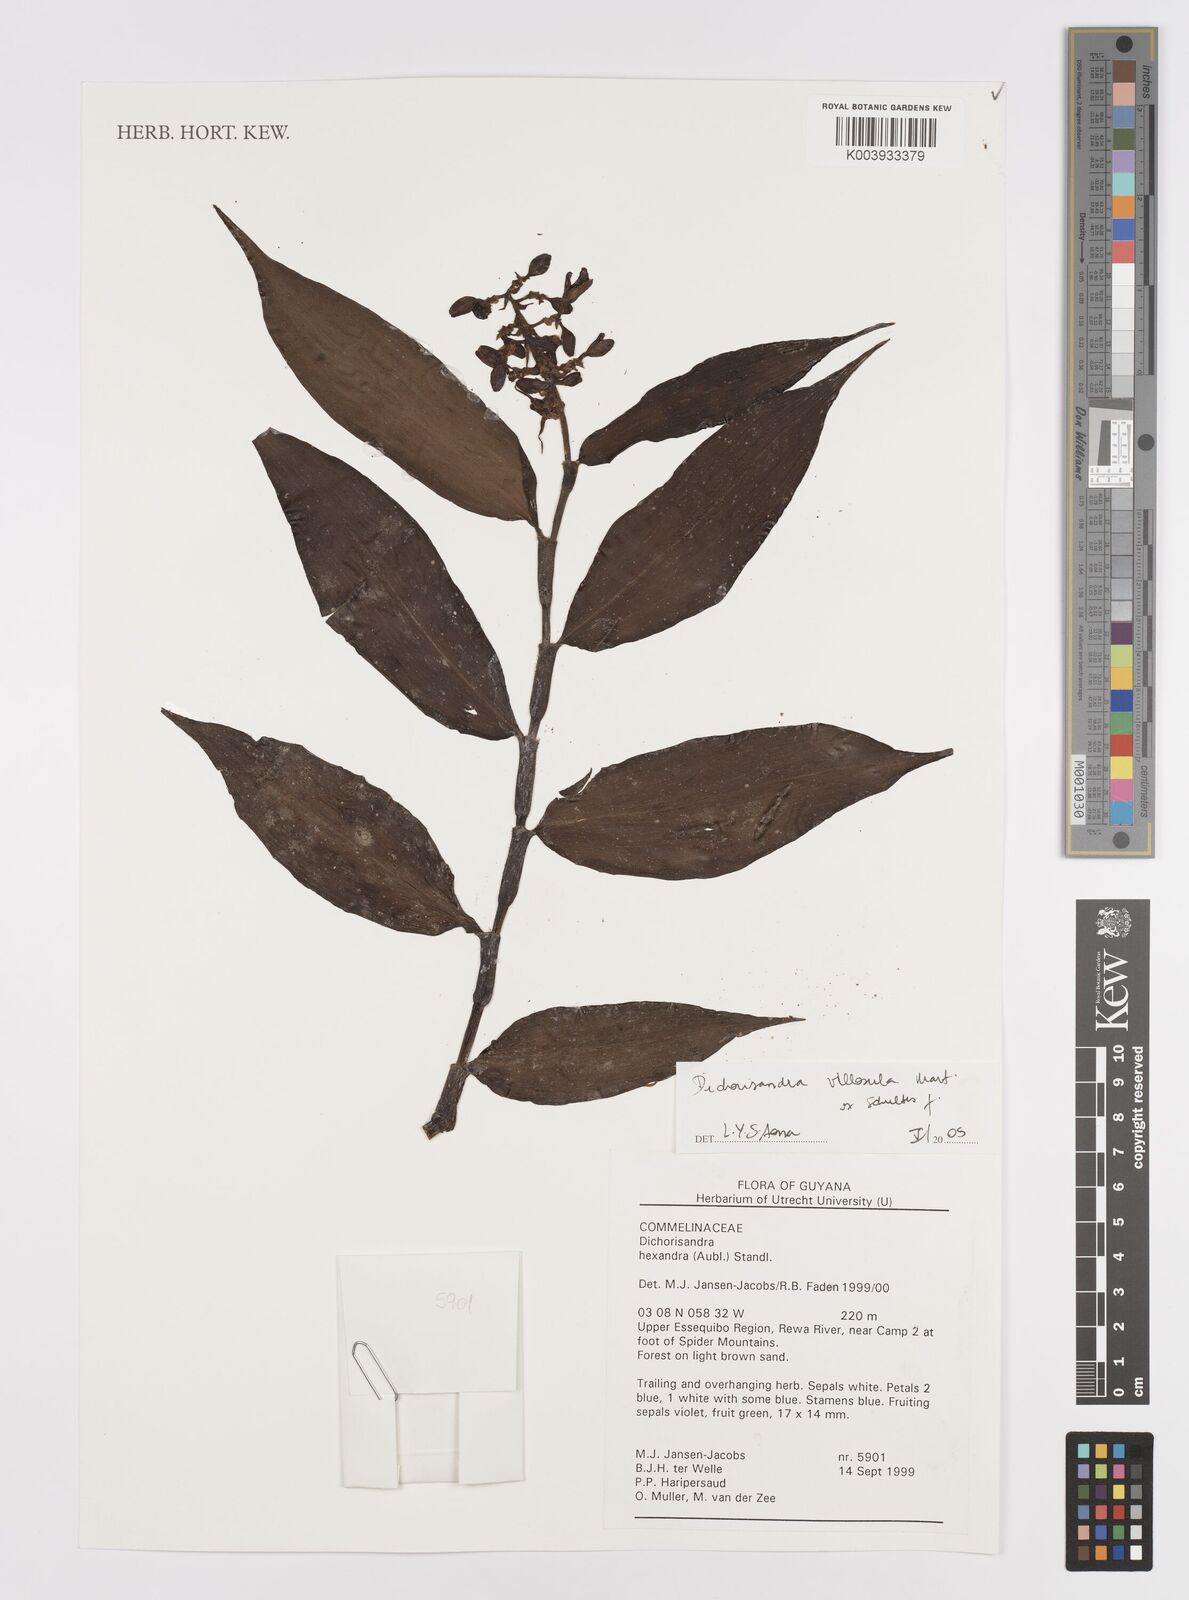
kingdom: Plantae
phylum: Tracheophyta
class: Liliopsida
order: Commelinales
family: Commelinaceae
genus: Dichorisandra
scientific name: Dichorisandra villosula
